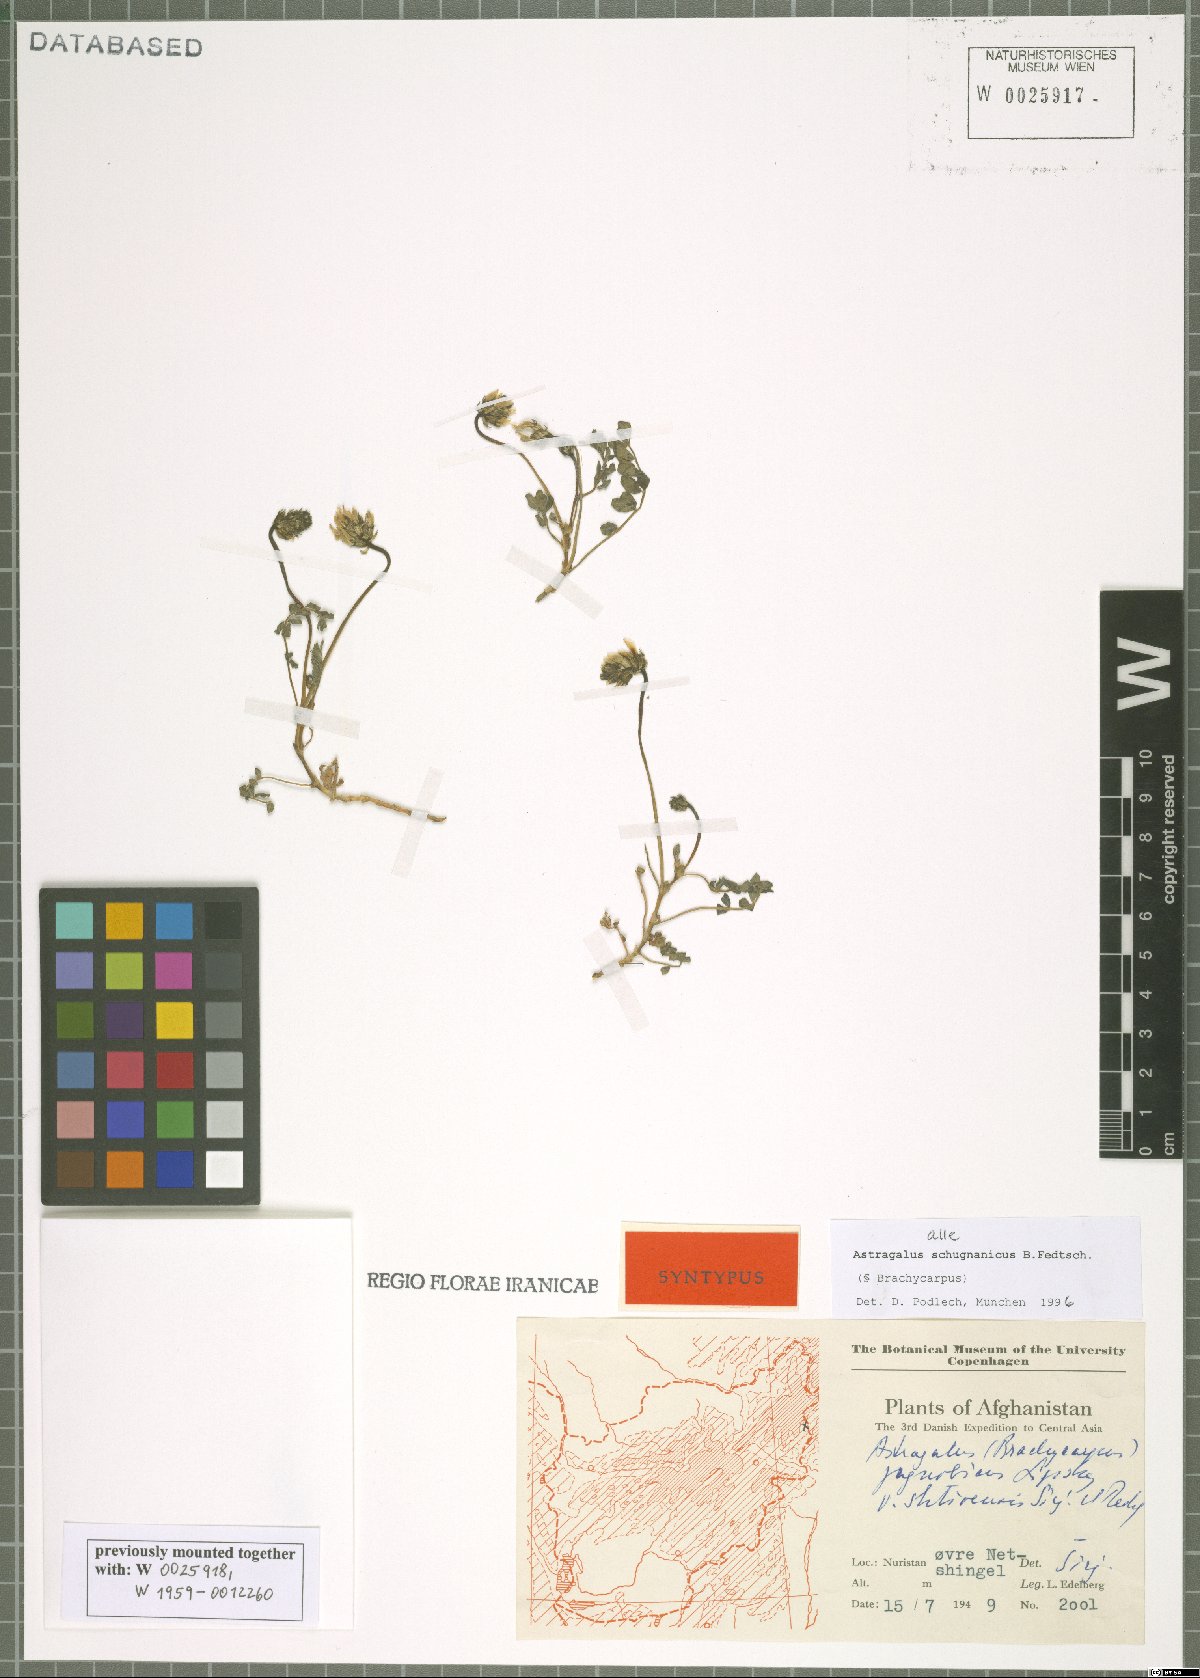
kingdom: Plantae
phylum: Tracheophyta
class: Magnoliopsida
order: Fabales
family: Fabaceae
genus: Astragalus
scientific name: Astragalus schugnanicus
